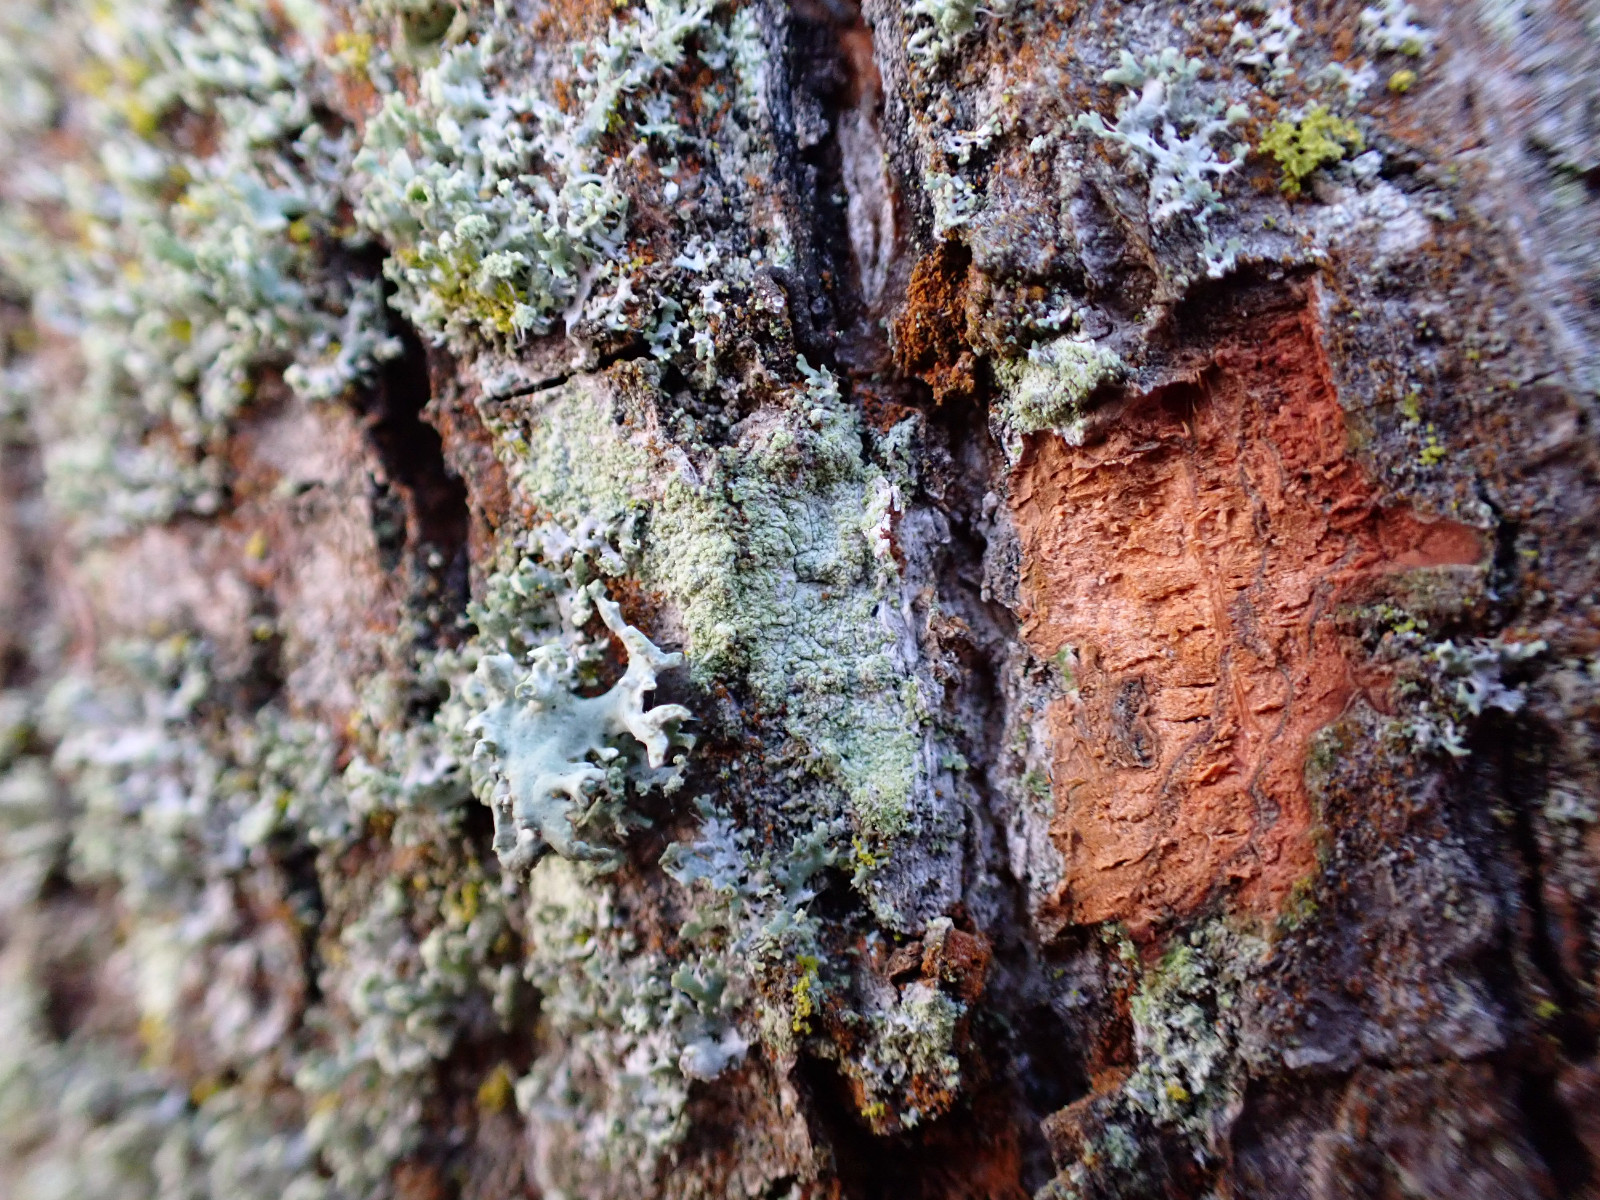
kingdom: Fungi
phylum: Ascomycota
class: Lecanoromycetes
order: Lecanorales
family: Lecanoraceae
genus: Lecanora
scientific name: Lecanora expallens
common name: bleggul kantskivelav
